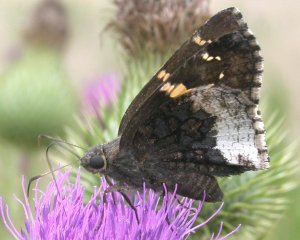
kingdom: Animalia
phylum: Arthropoda
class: Insecta
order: Lepidoptera
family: Hesperiidae
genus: Achalarus
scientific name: Achalarus lyciades
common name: Hoary Edge
